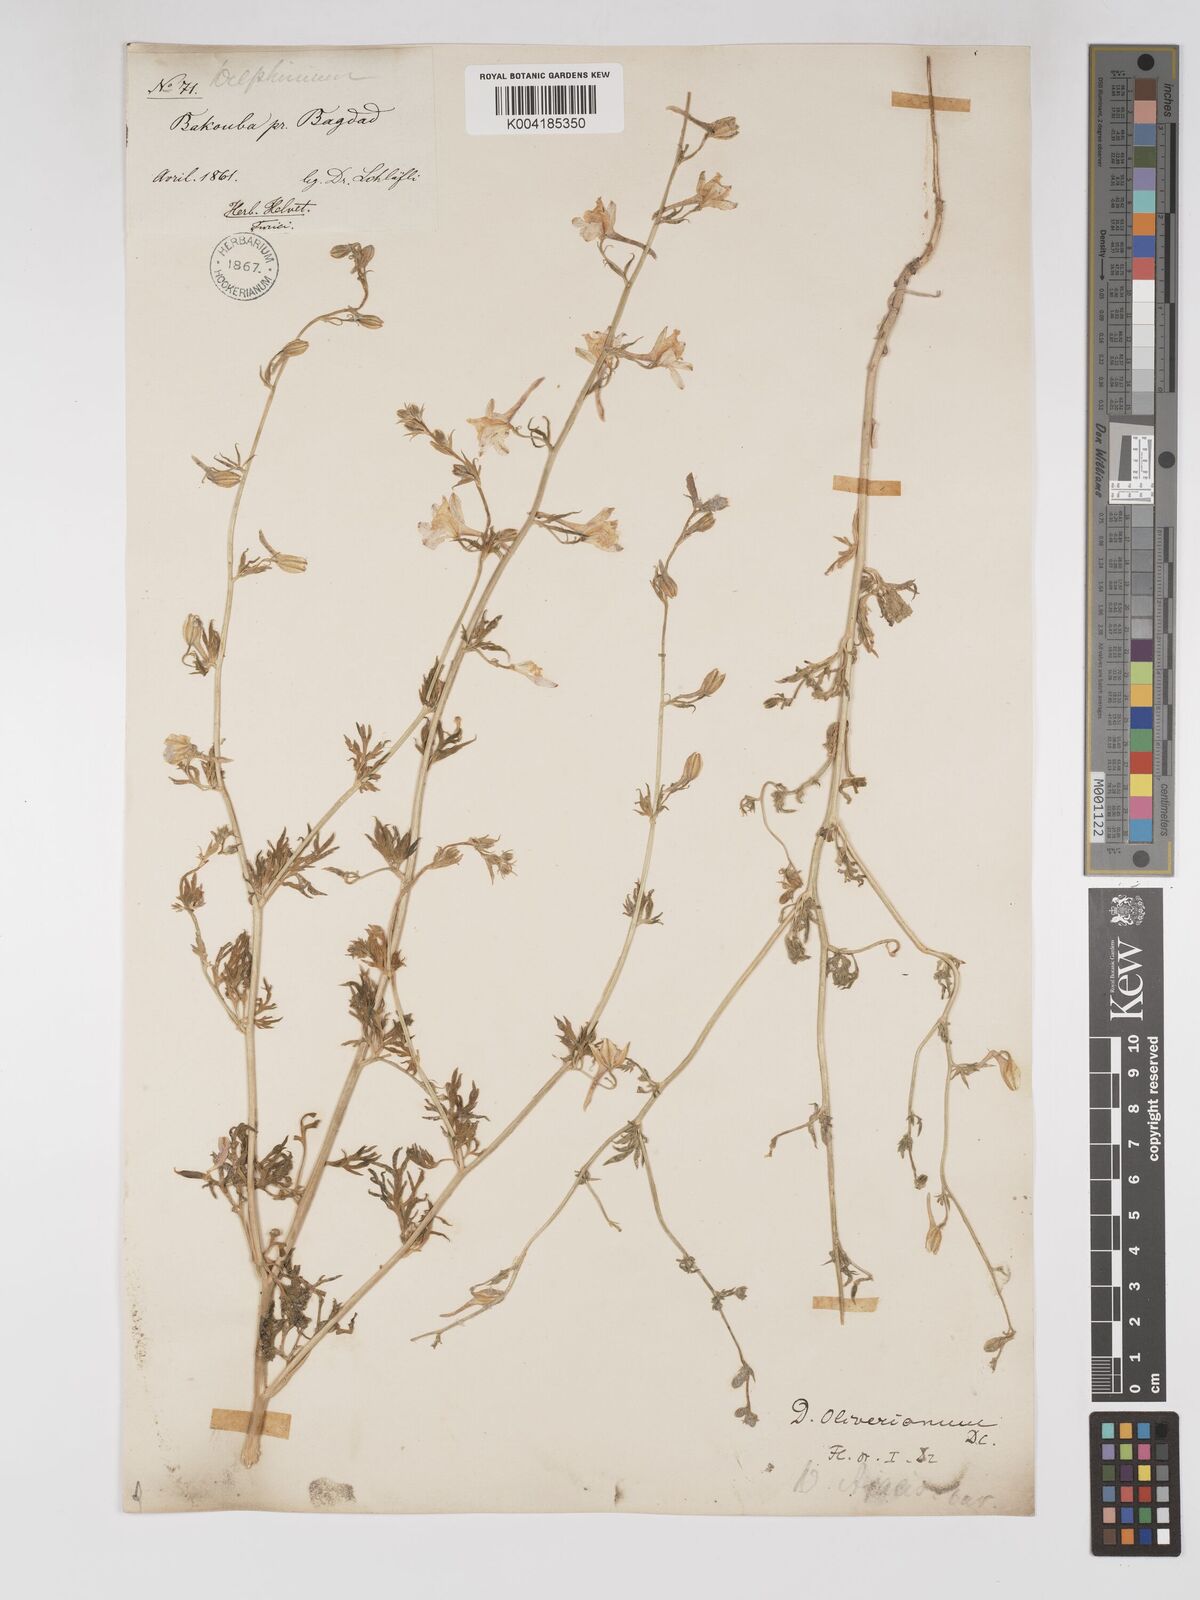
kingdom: Plantae
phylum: Tracheophyta
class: Magnoliopsida
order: Ranunculales
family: Ranunculaceae
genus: Delphinium
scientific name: Delphinium oliverianum
